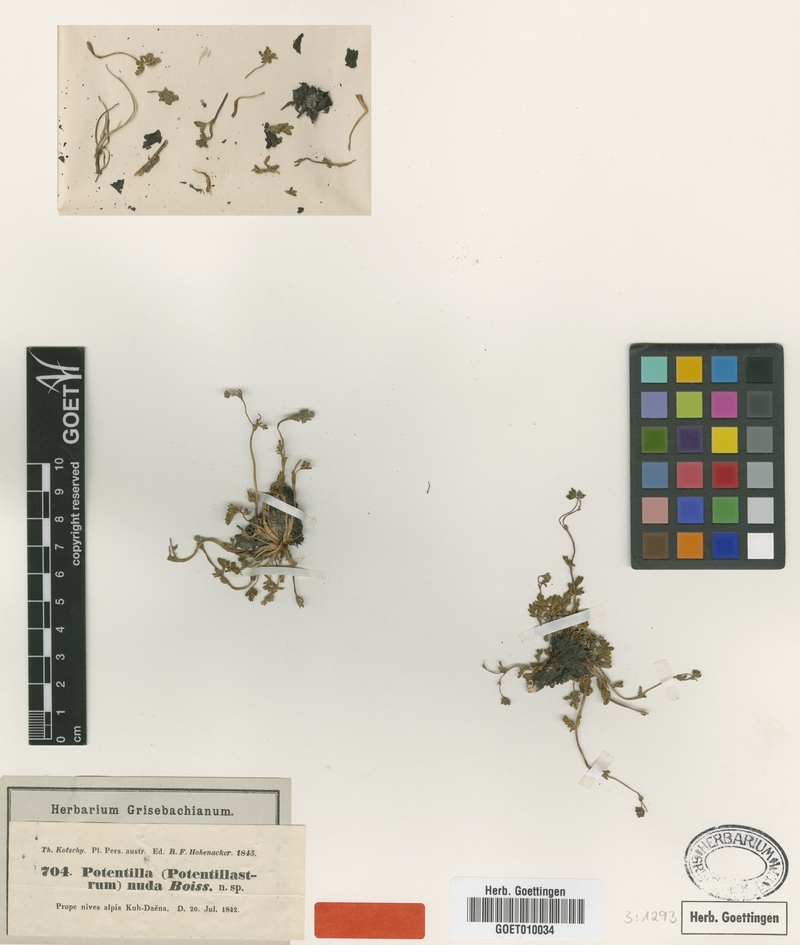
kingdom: Plantae
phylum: Tracheophyta
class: Magnoliopsida
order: Rosales
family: Rosaceae
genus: Potentilla
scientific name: Potentilla nuda
